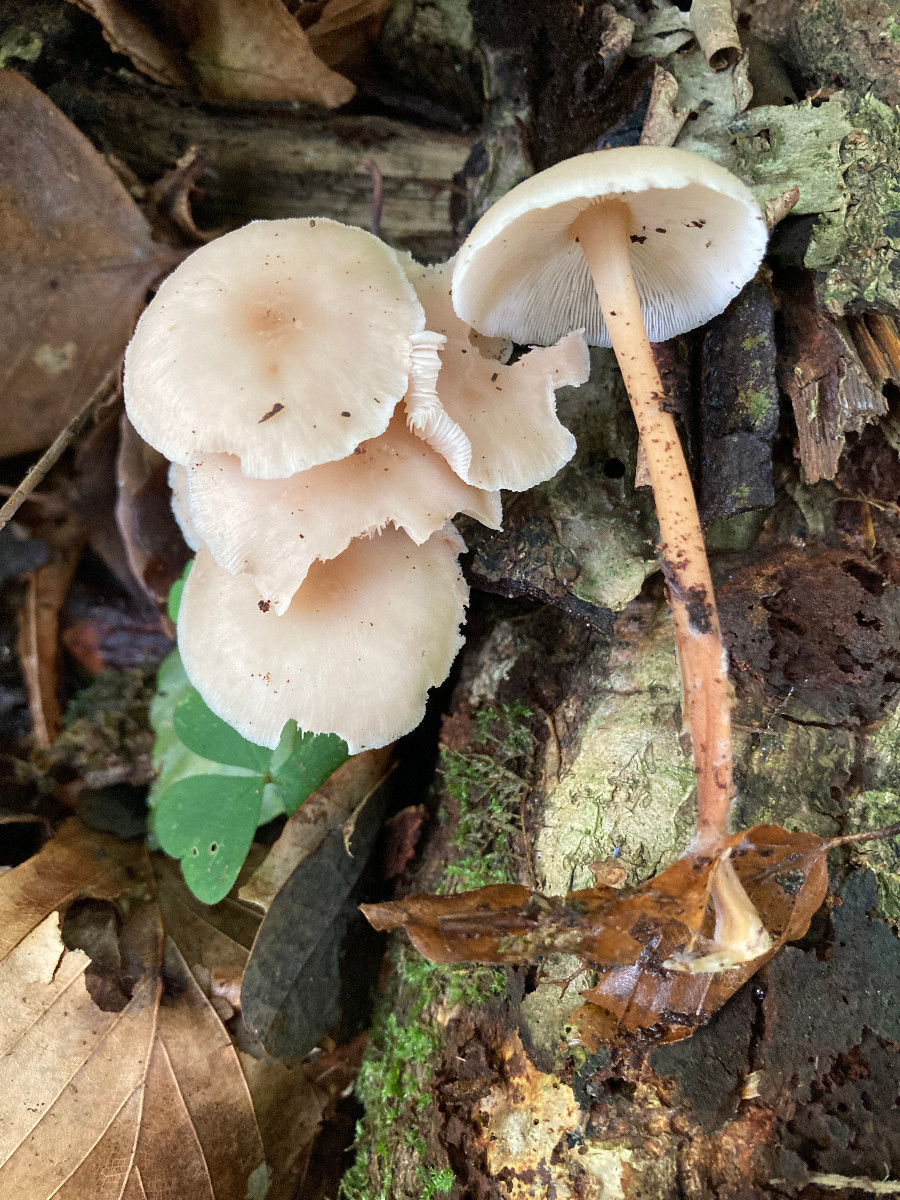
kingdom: Fungi
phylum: Basidiomycota
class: Agaricomycetes
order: Agaricales
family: Omphalotaceae
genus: Collybiopsis
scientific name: Collybiopsis confluens
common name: knippe-fladhat
